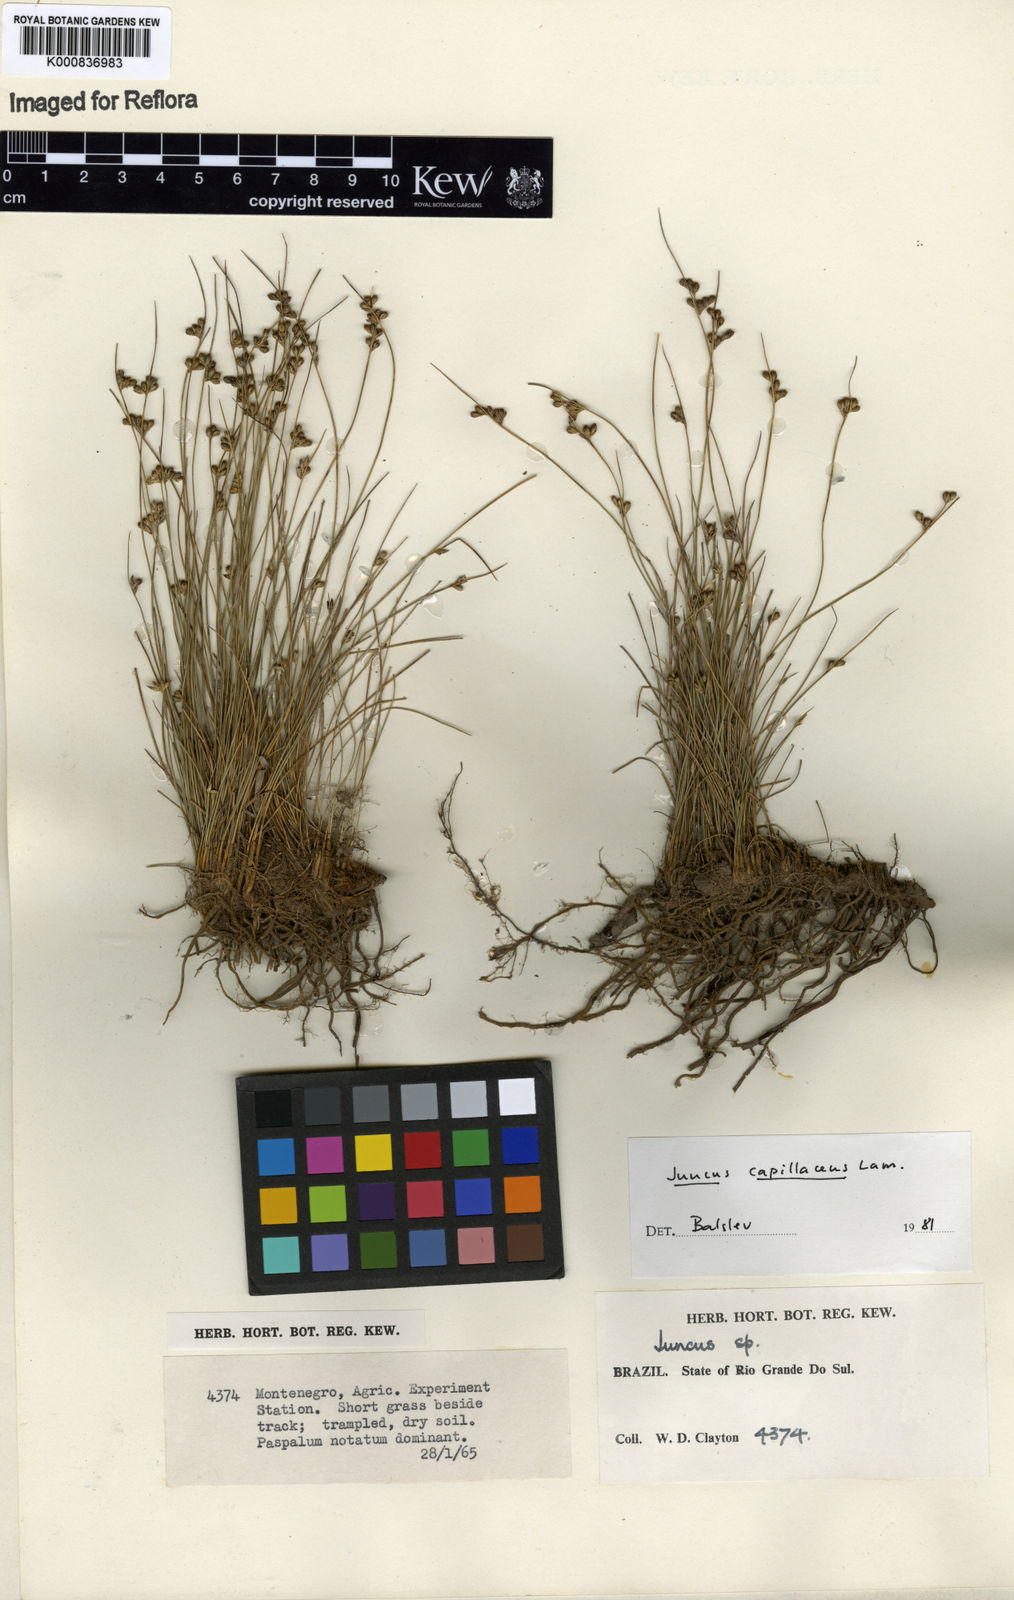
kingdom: Plantae
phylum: Tracheophyta
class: Liliopsida
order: Poales
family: Juncaceae
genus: Juncus
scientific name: Juncus capillaceus
